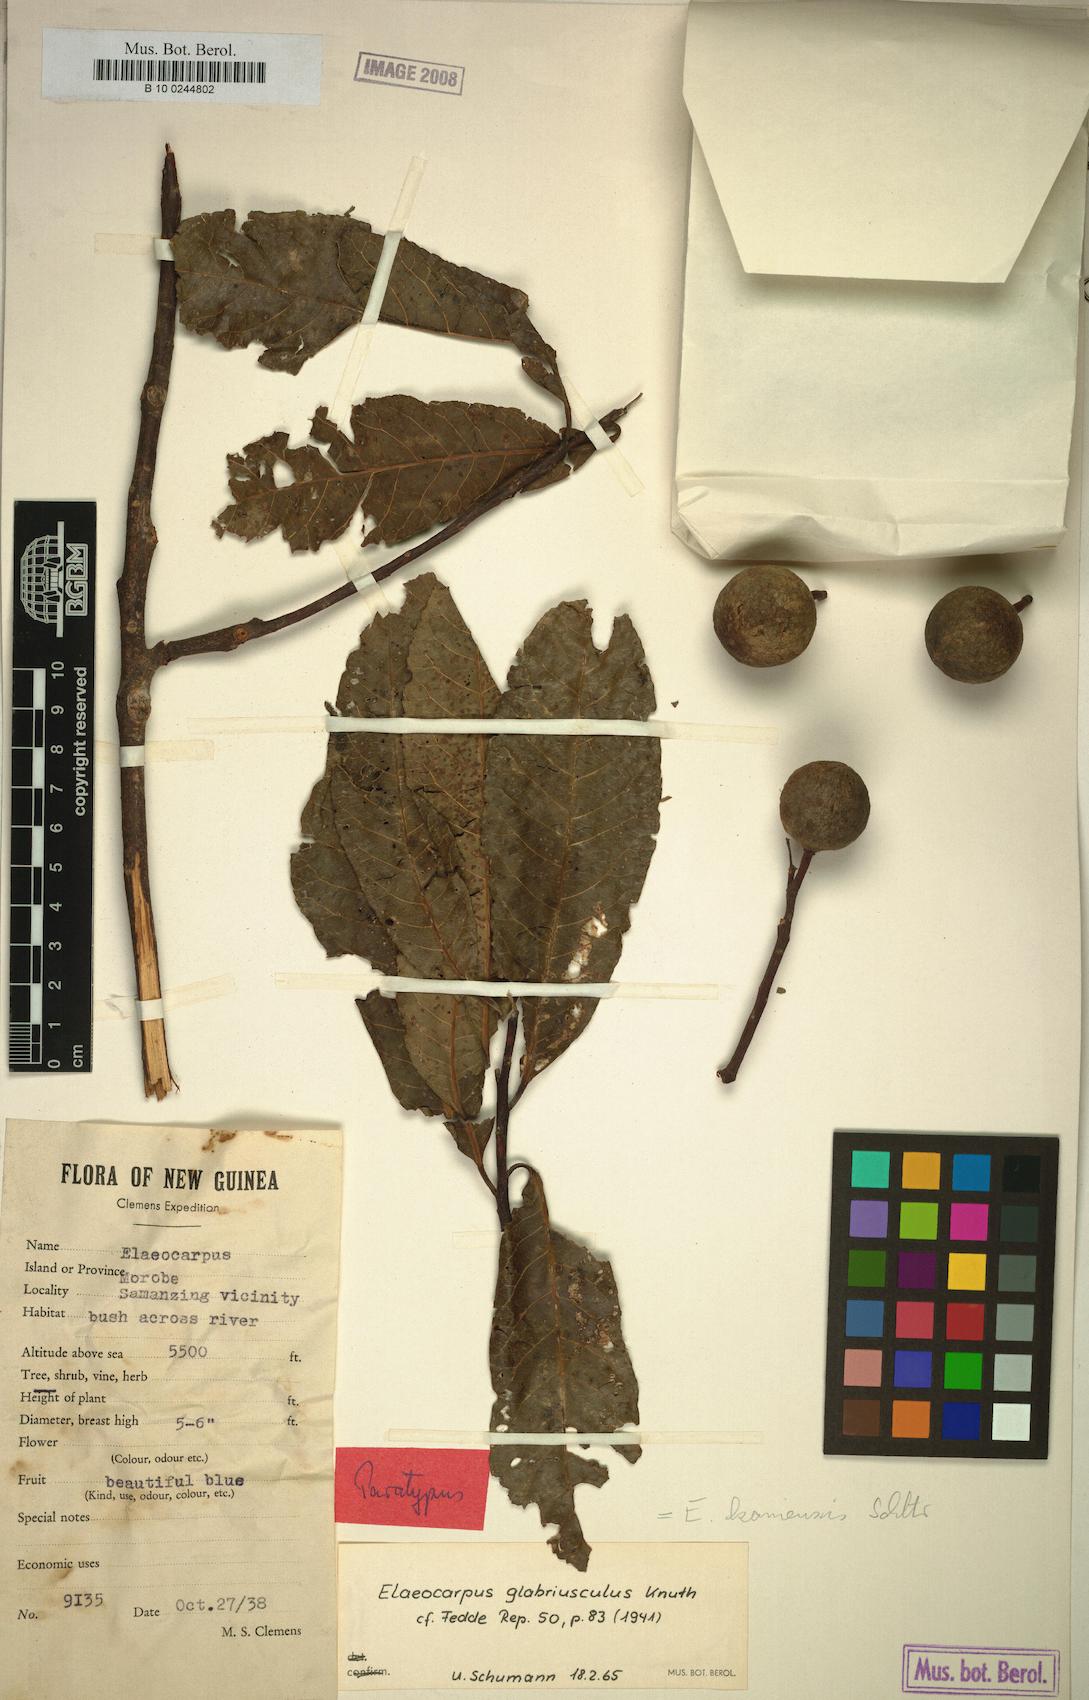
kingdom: Plantae
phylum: Tracheophyta
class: Magnoliopsida
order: Oxalidales
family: Elaeocarpaceae
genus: Elaeocarpus
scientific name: Elaeocarpus kaniensis
